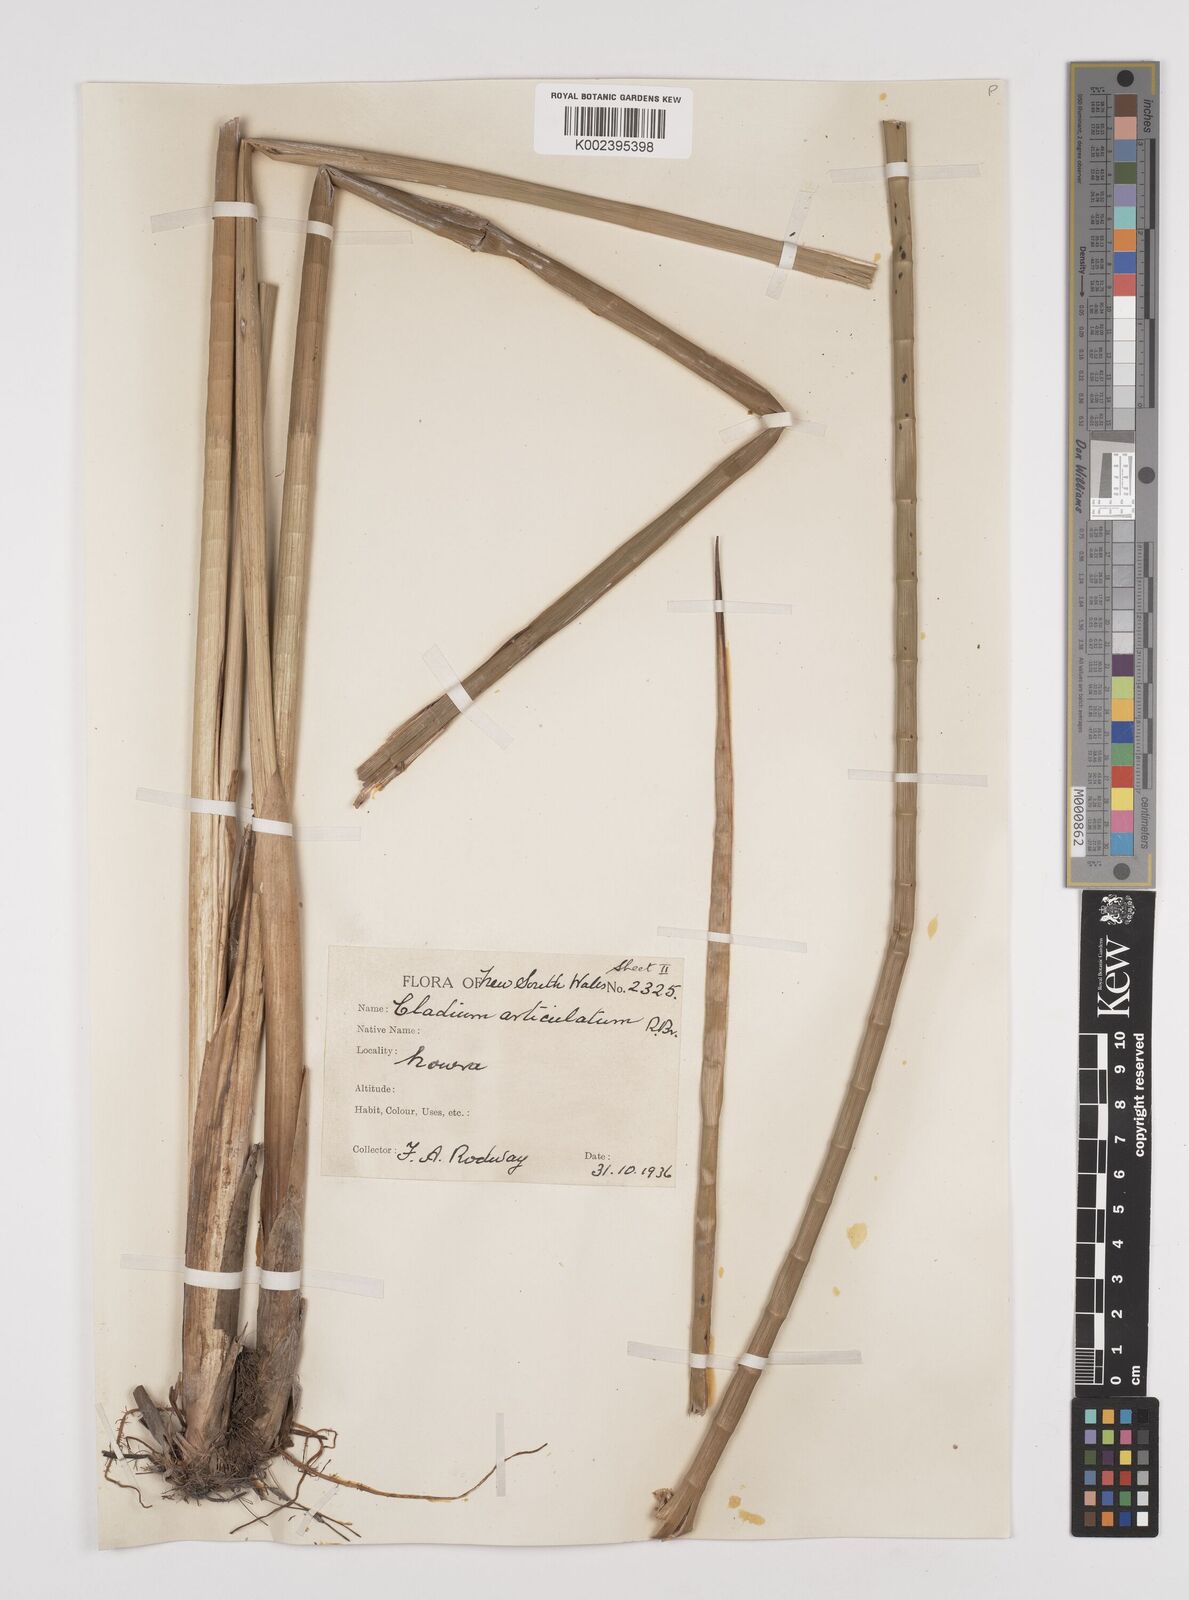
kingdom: Plantae
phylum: Tracheophyta
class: Liliopsida
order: Poales
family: Cyperaceae
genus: Machaerina
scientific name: Machaerina articulata
